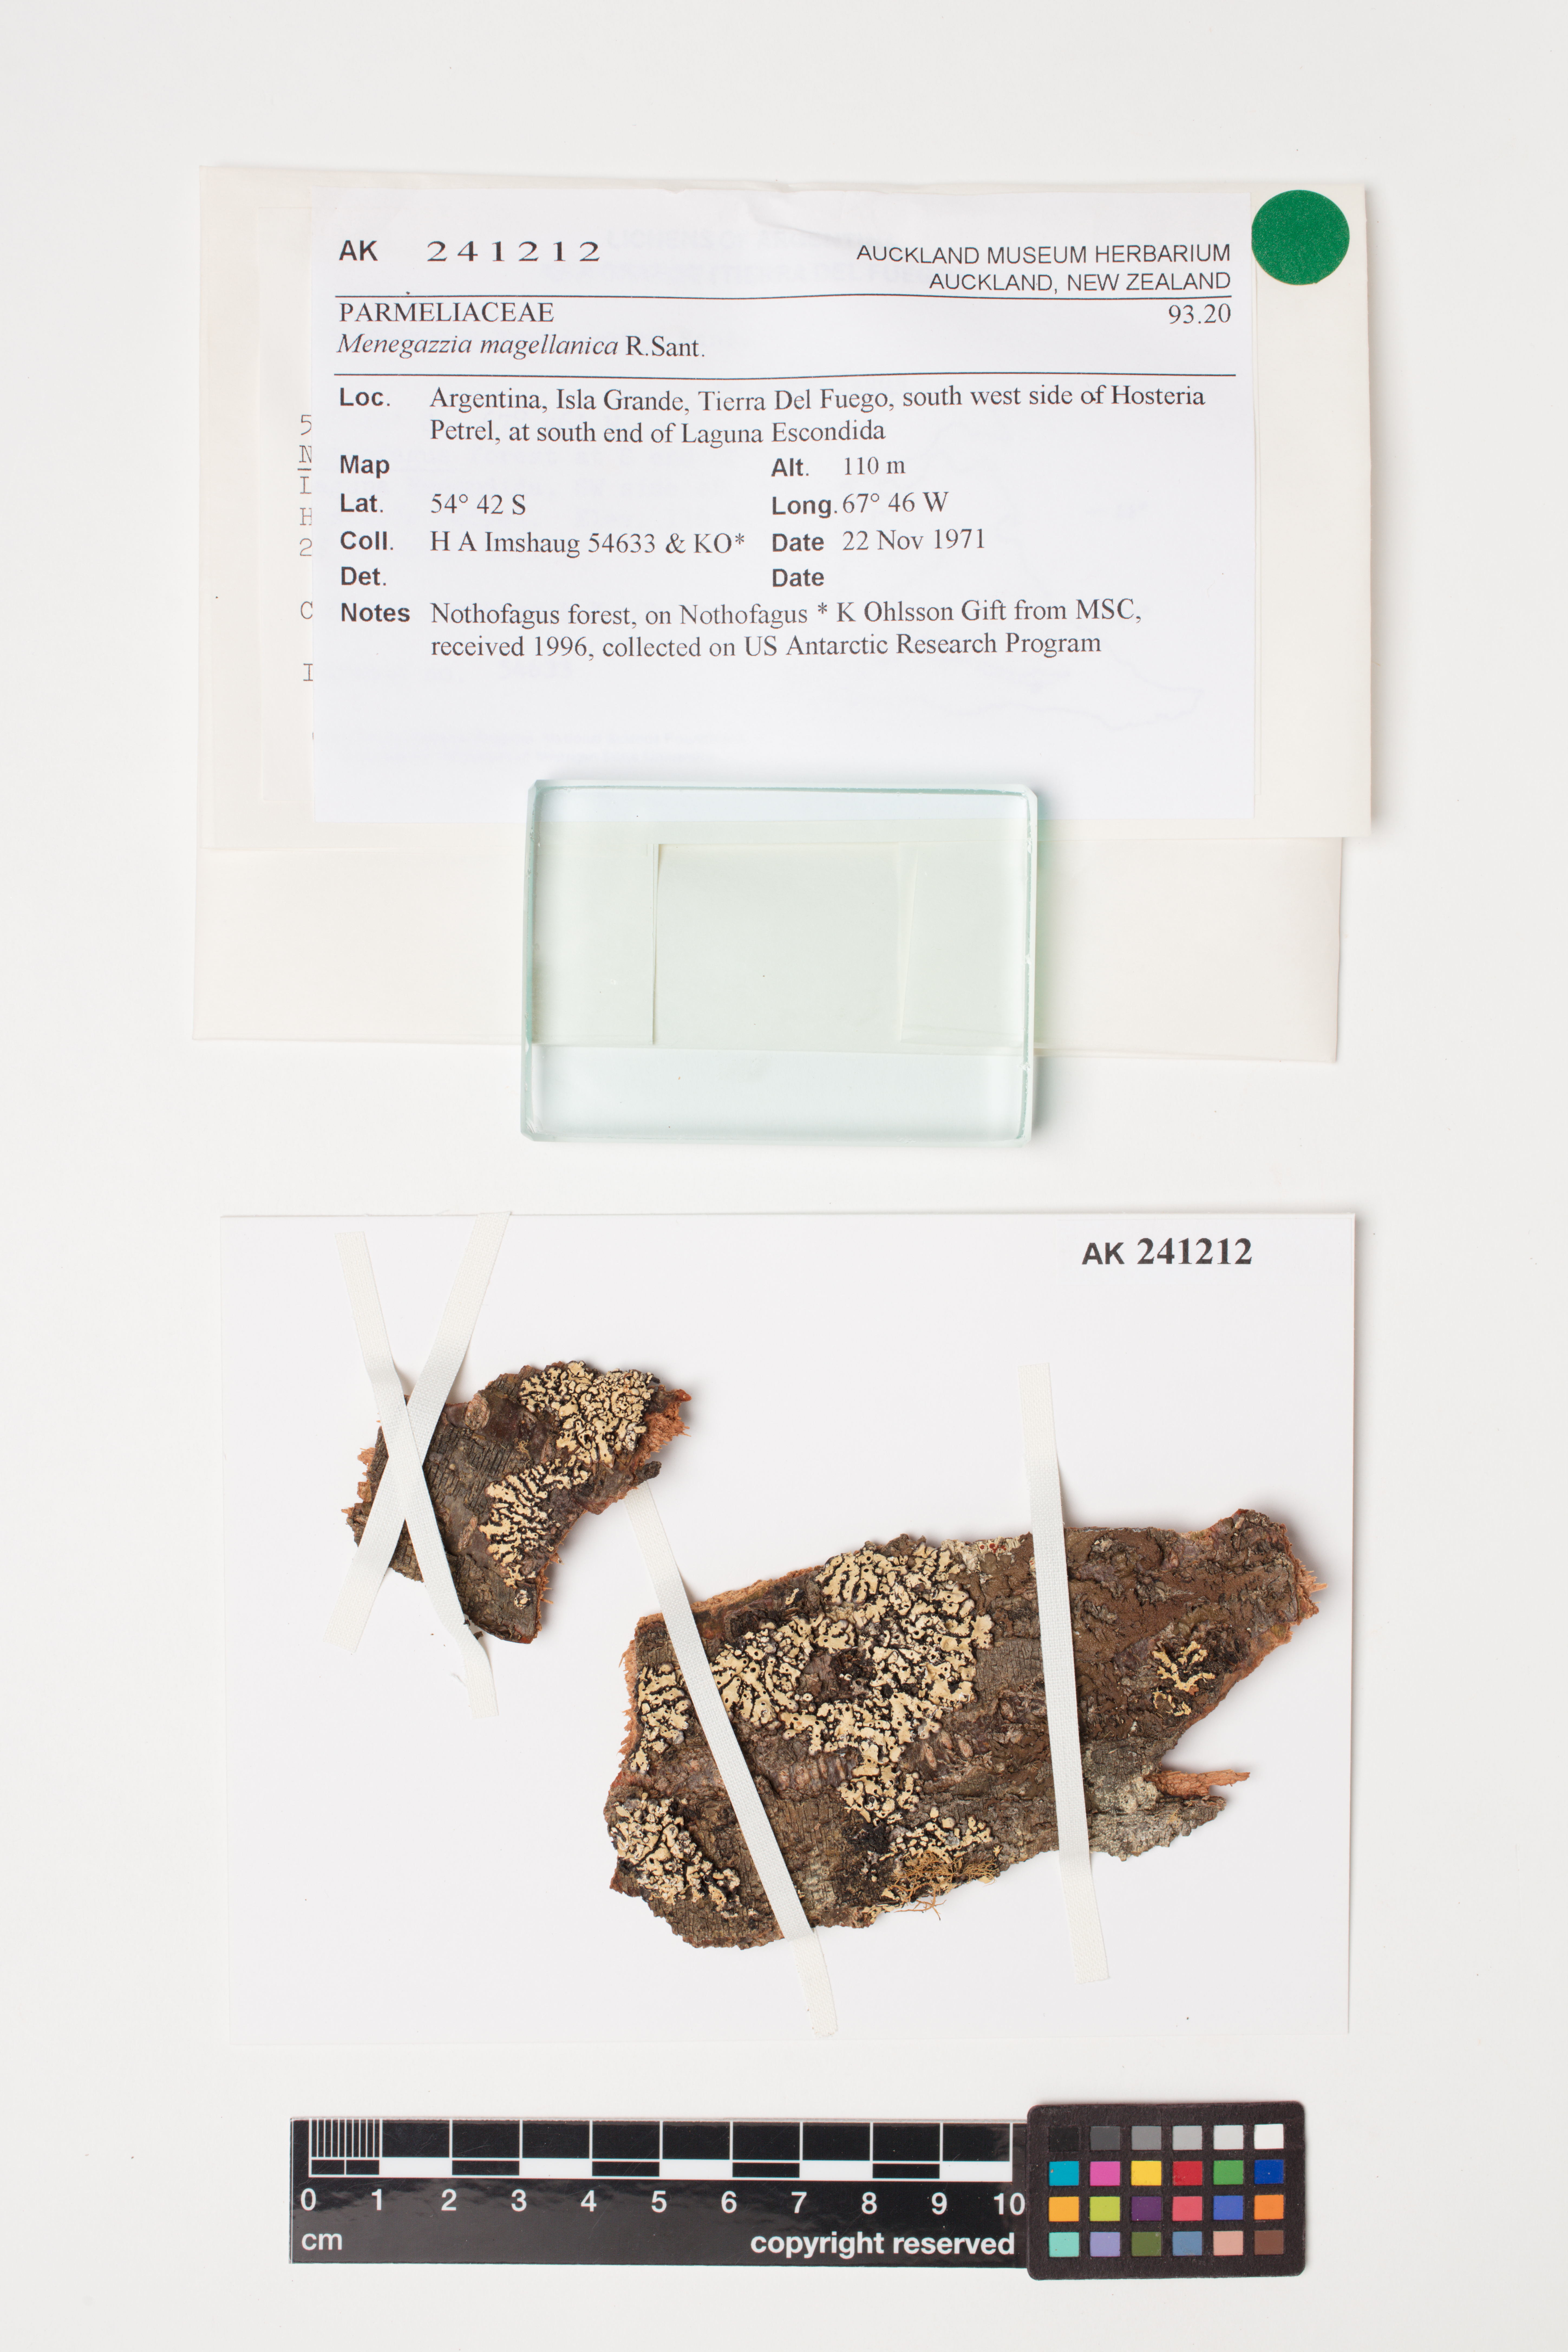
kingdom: Fungi
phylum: Ascomycota
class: Lecanoromycetes
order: Lecanorales
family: Parmeliaceae
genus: Menegazzia
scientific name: Menegazzia subpertusa
